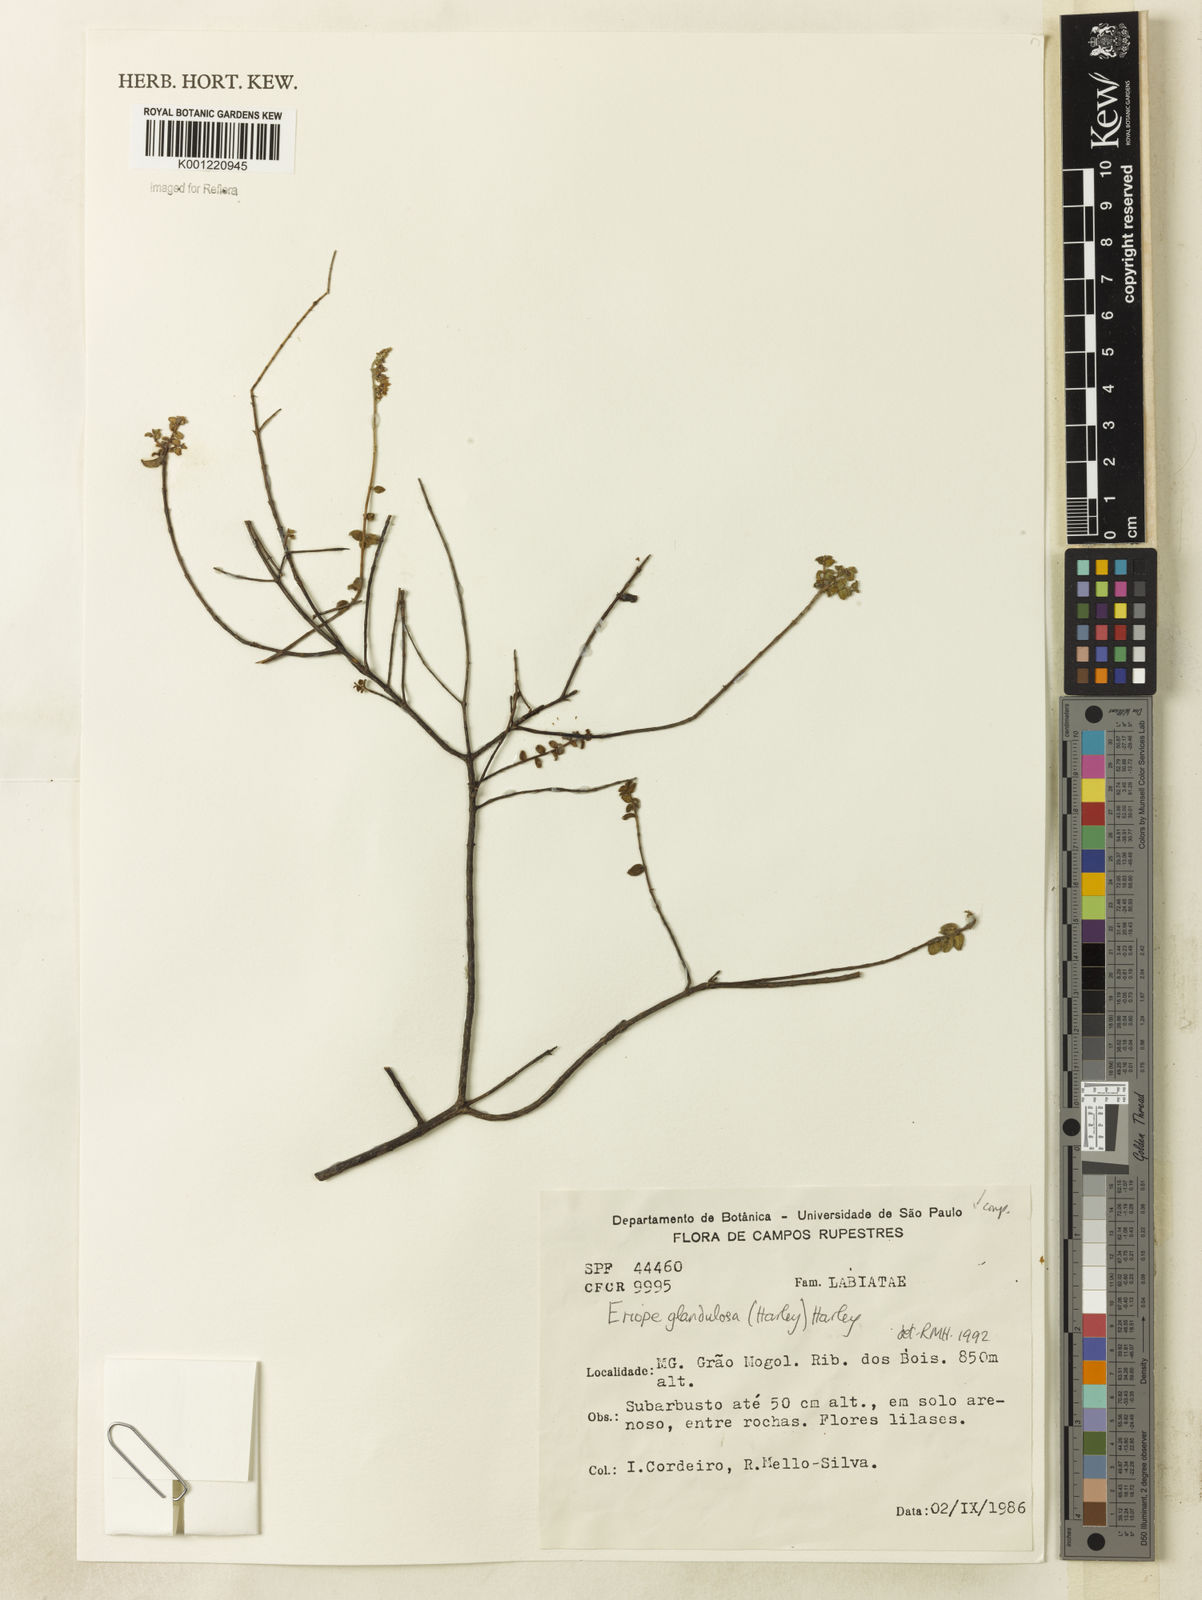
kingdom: Plantae
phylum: Tracheophyta
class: Magnoliopsida
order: Lamiales
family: Lamiaceae
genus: Eriope
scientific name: Eriope glandulosa
